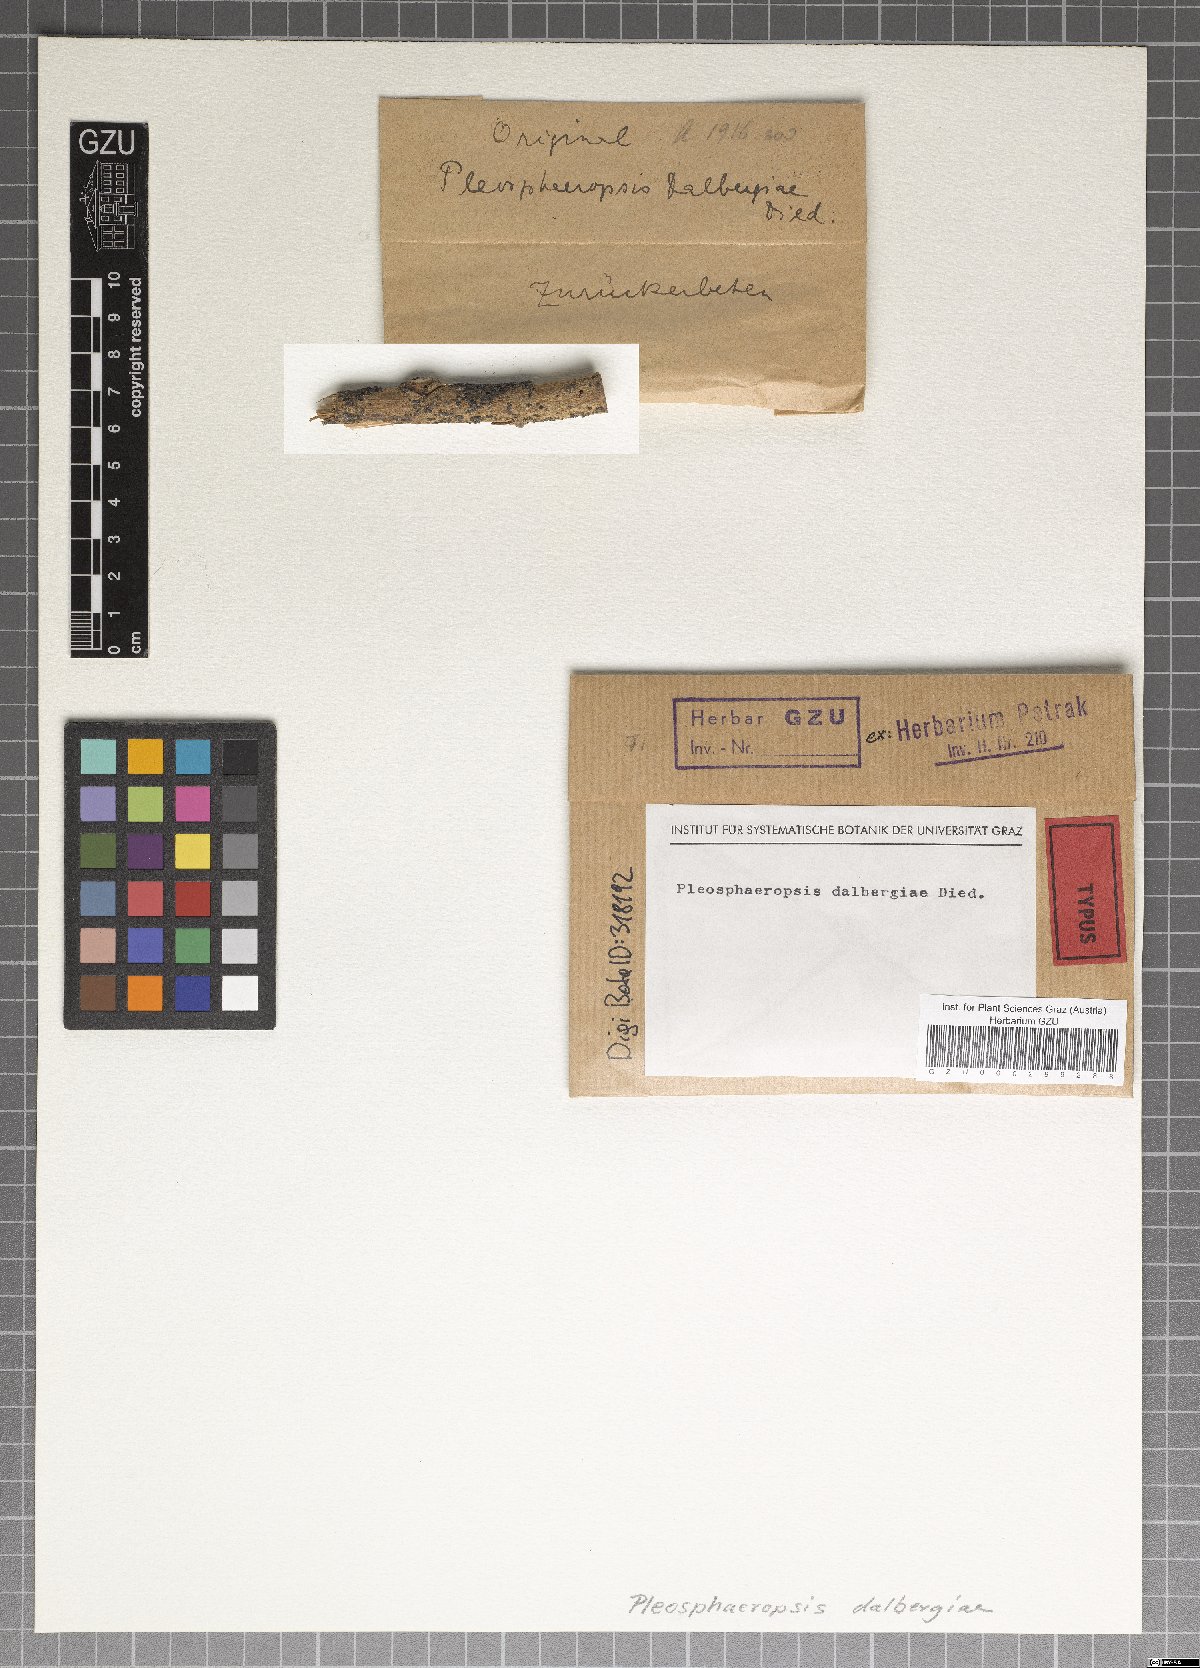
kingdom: Fungi
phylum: Ascomycota
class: Dothideomycetes
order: Botryosphaeriales
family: Aplosporellaceae
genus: Aplosporella
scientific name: Aplosporella dalbergiae
